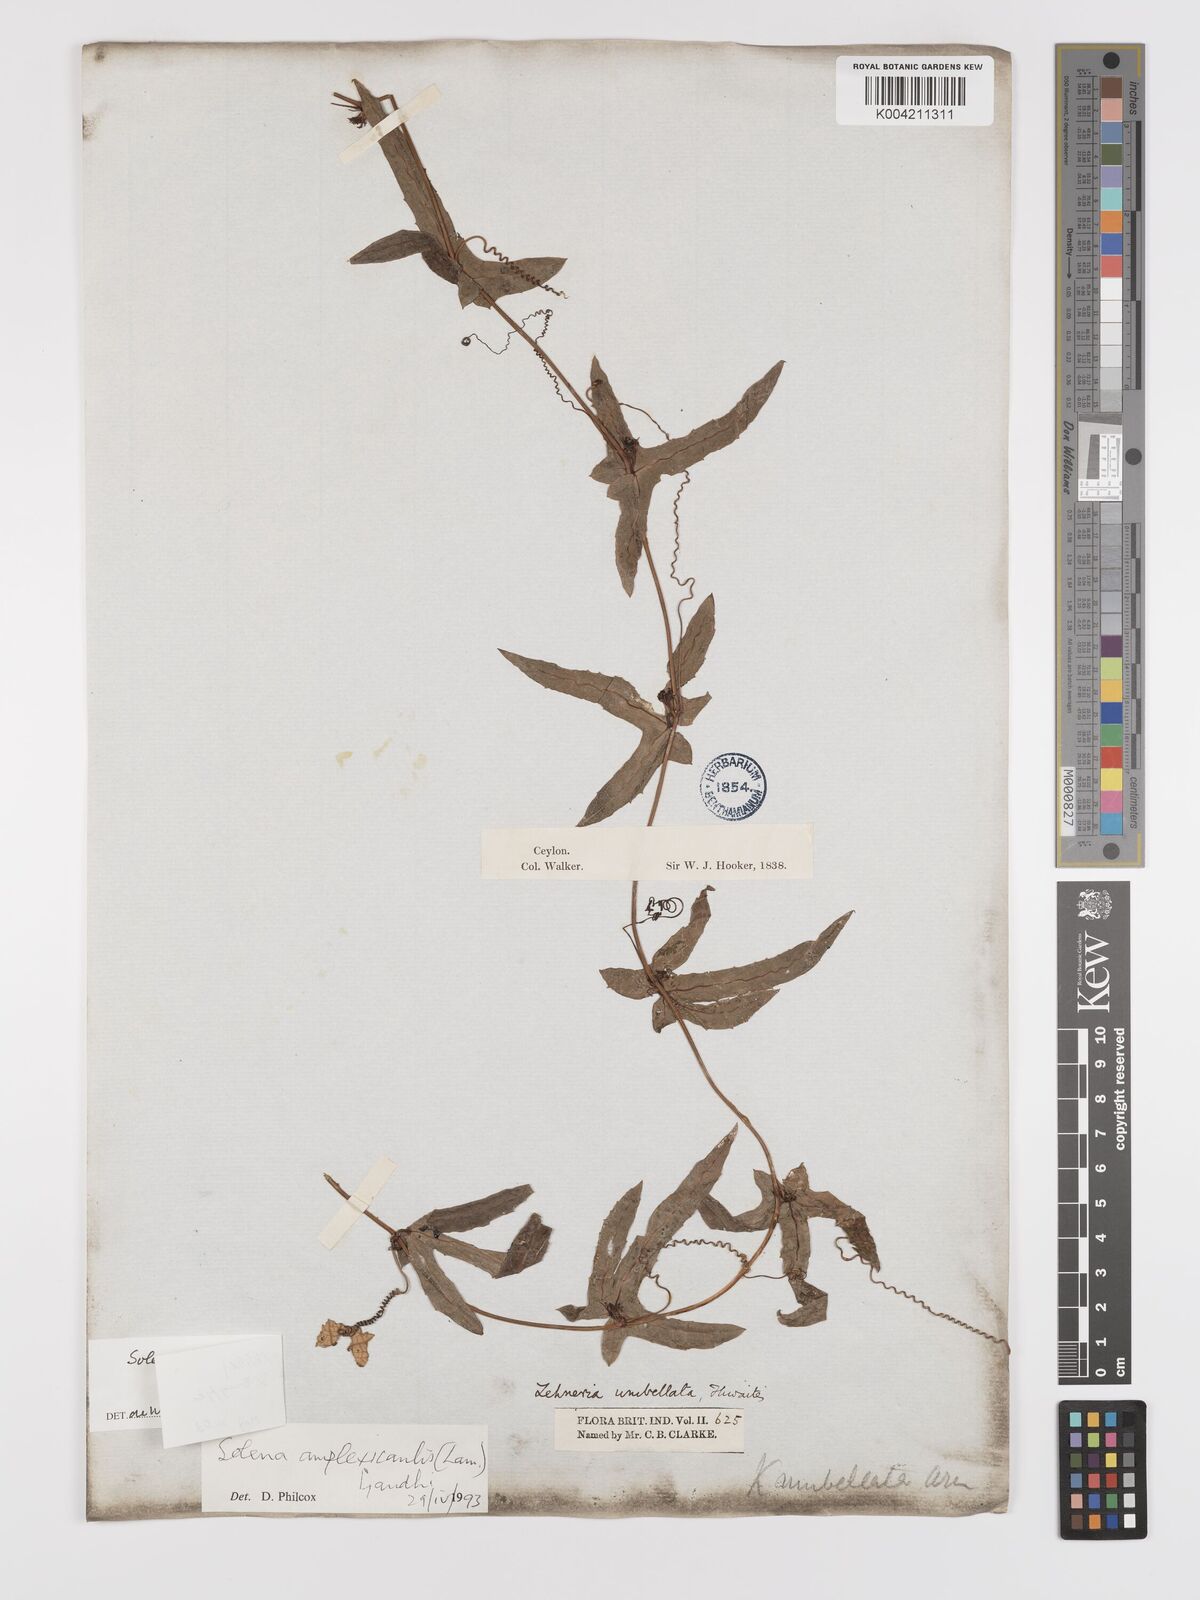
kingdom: Plantae
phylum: Tracheophyta
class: Magnoliopsida
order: Cucurbitales
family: Cucurbitaceae
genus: Solena
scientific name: Solena umbellata
